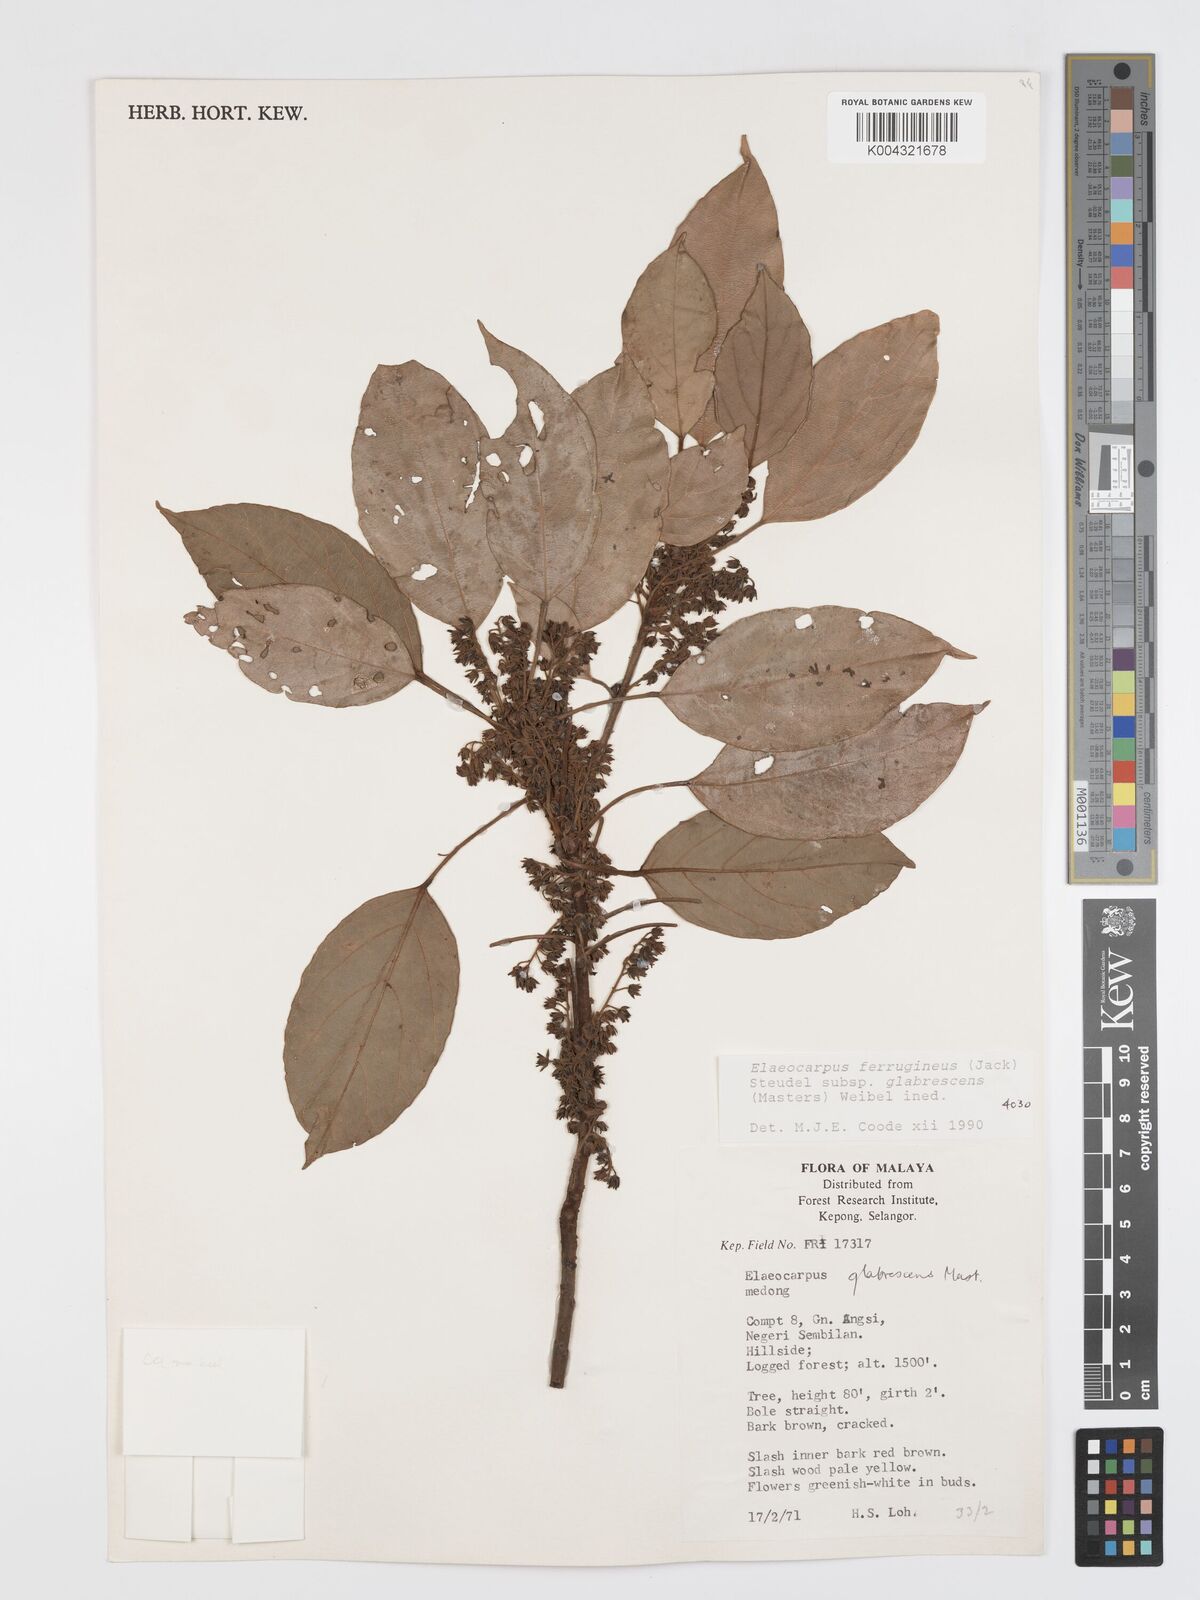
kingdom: Plantae
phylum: Tracheophyta
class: Magnoliopsida
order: Oxalidales
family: Elaeocarpaceae
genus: Elaeocarpus
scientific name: Elaeocarpus ferrugineus
